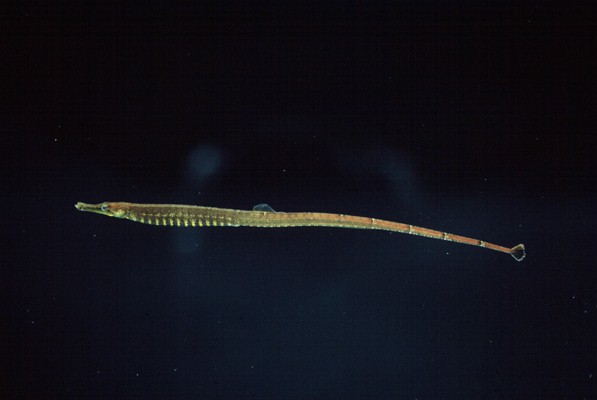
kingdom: Animalia
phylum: Chordata
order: Syngnathiformes
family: Syngnathidae
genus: Hippichthys
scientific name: Hippichthys spicifer
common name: Banded freshwater pipefish
